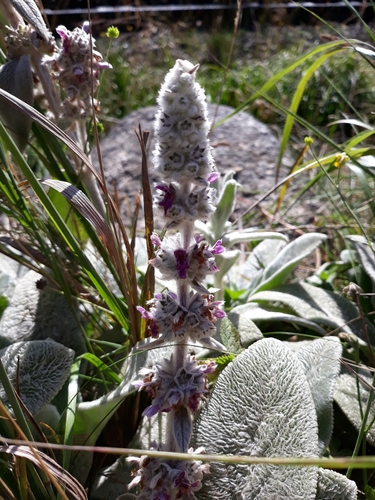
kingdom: Plantae
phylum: Tracheophyta
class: Magnoliopsida
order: Lamiales
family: Lamiaceae
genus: Stachys
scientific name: Stachys byzantina
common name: Lamb's-ear
